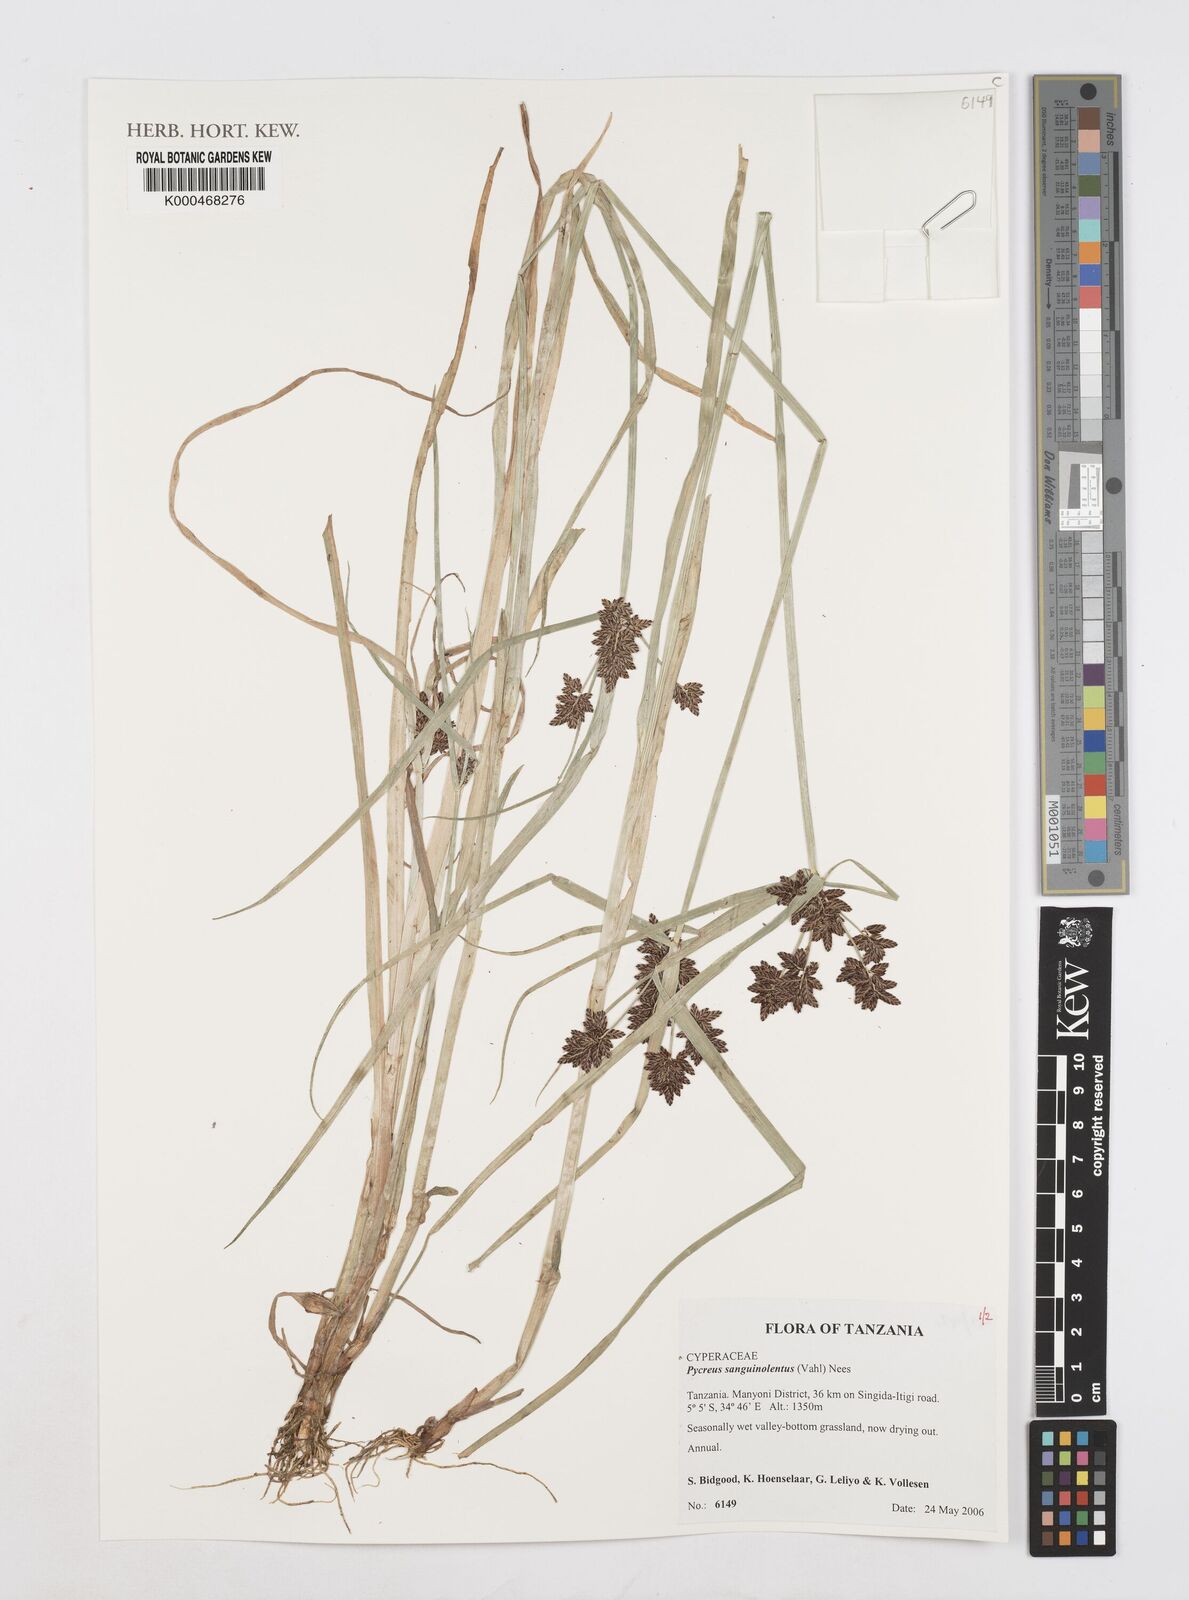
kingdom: Plantae
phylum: Tracheophyta
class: Liliopsida
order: Poales
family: Cyperaceae
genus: Cyperus
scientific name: Cyperus sanguinolentus
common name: Purpleglume flatsedge
